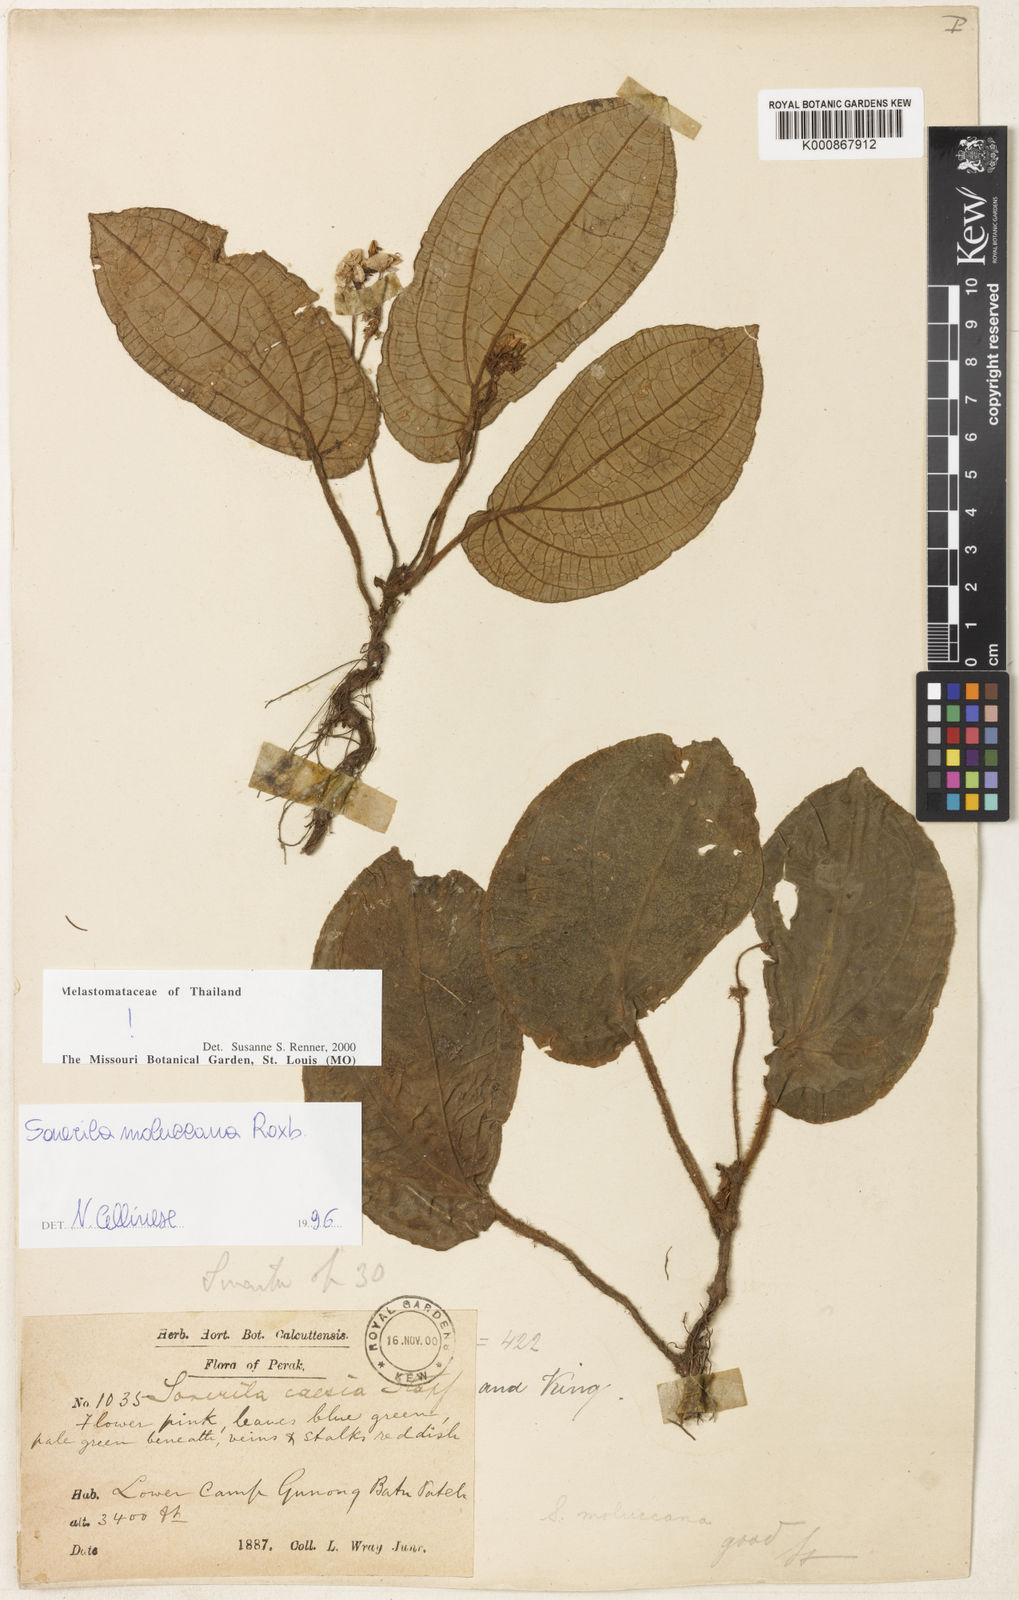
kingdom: Plantae
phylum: Tracheophyta
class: Magnoliopsida
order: Myrtales
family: Melastomataceae
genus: Sonerila
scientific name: Sonerila moluccana
